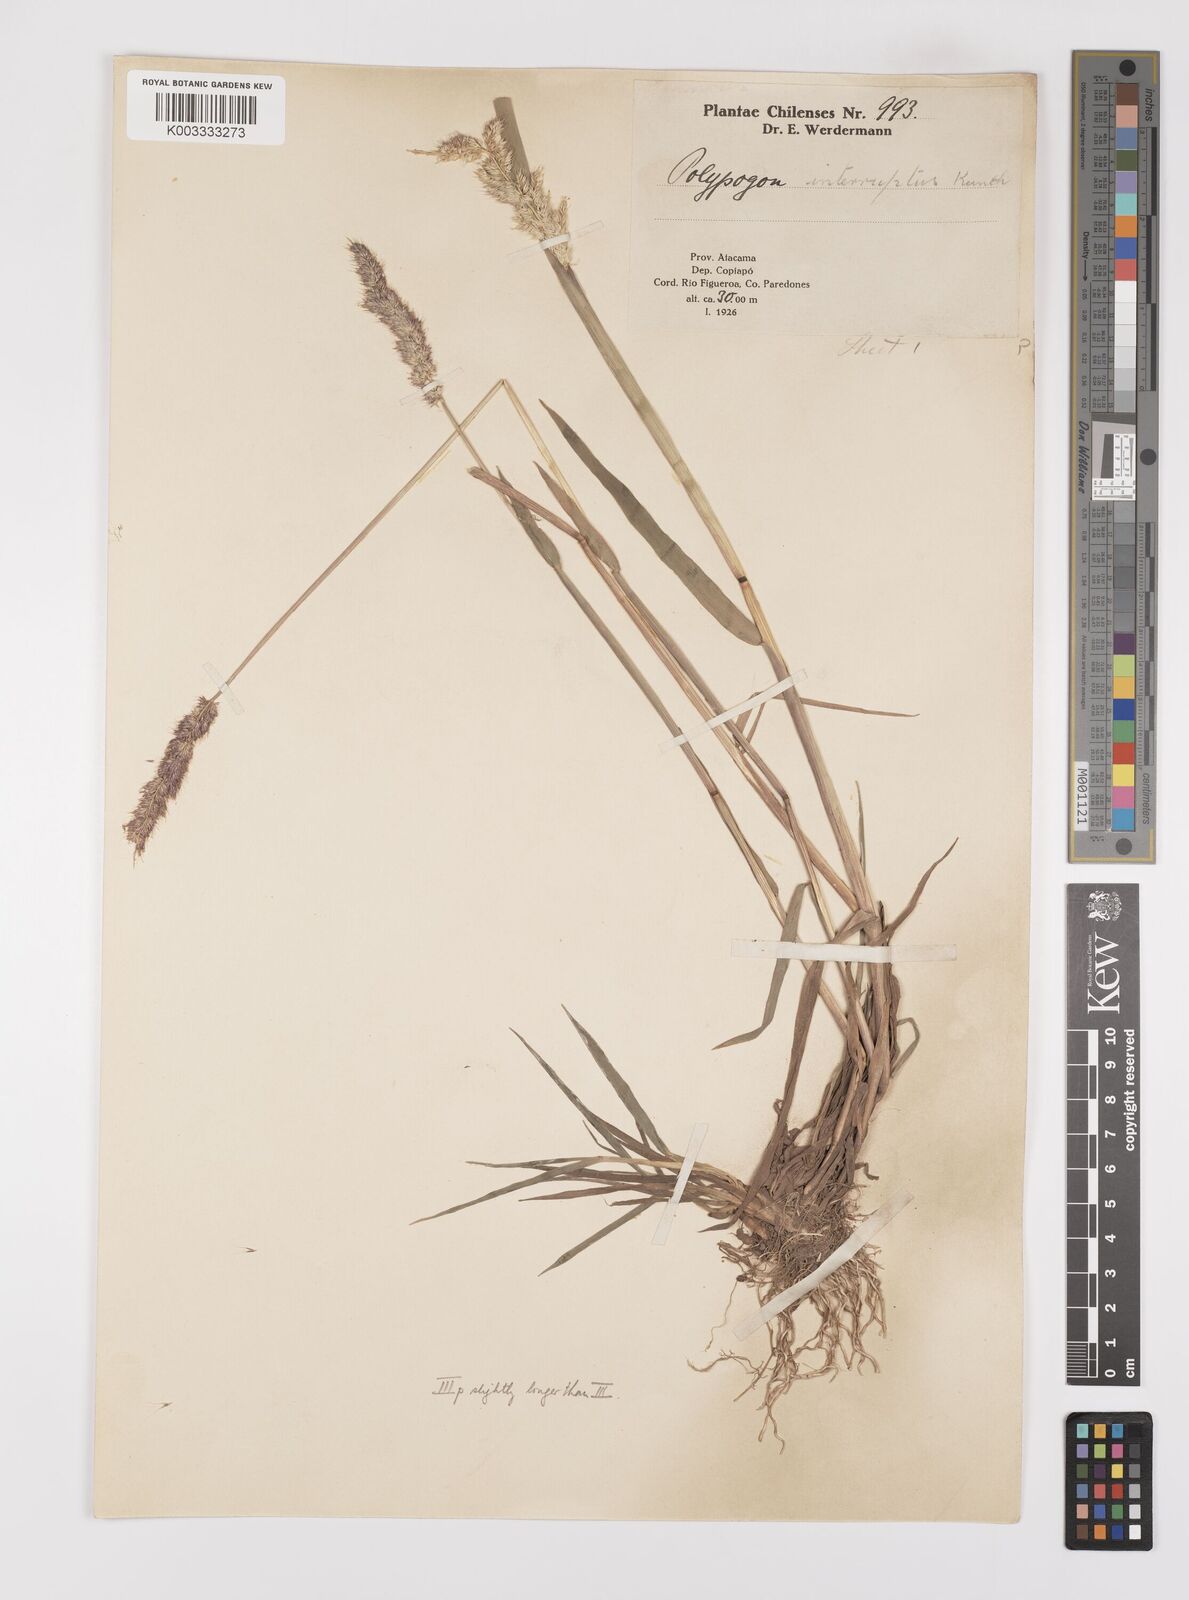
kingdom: Plantae
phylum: Tracheophyta
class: Liliopsida
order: Poales
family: Poaceae
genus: Polypogon
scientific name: Polypogon interruptus
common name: Ditch polypogon
